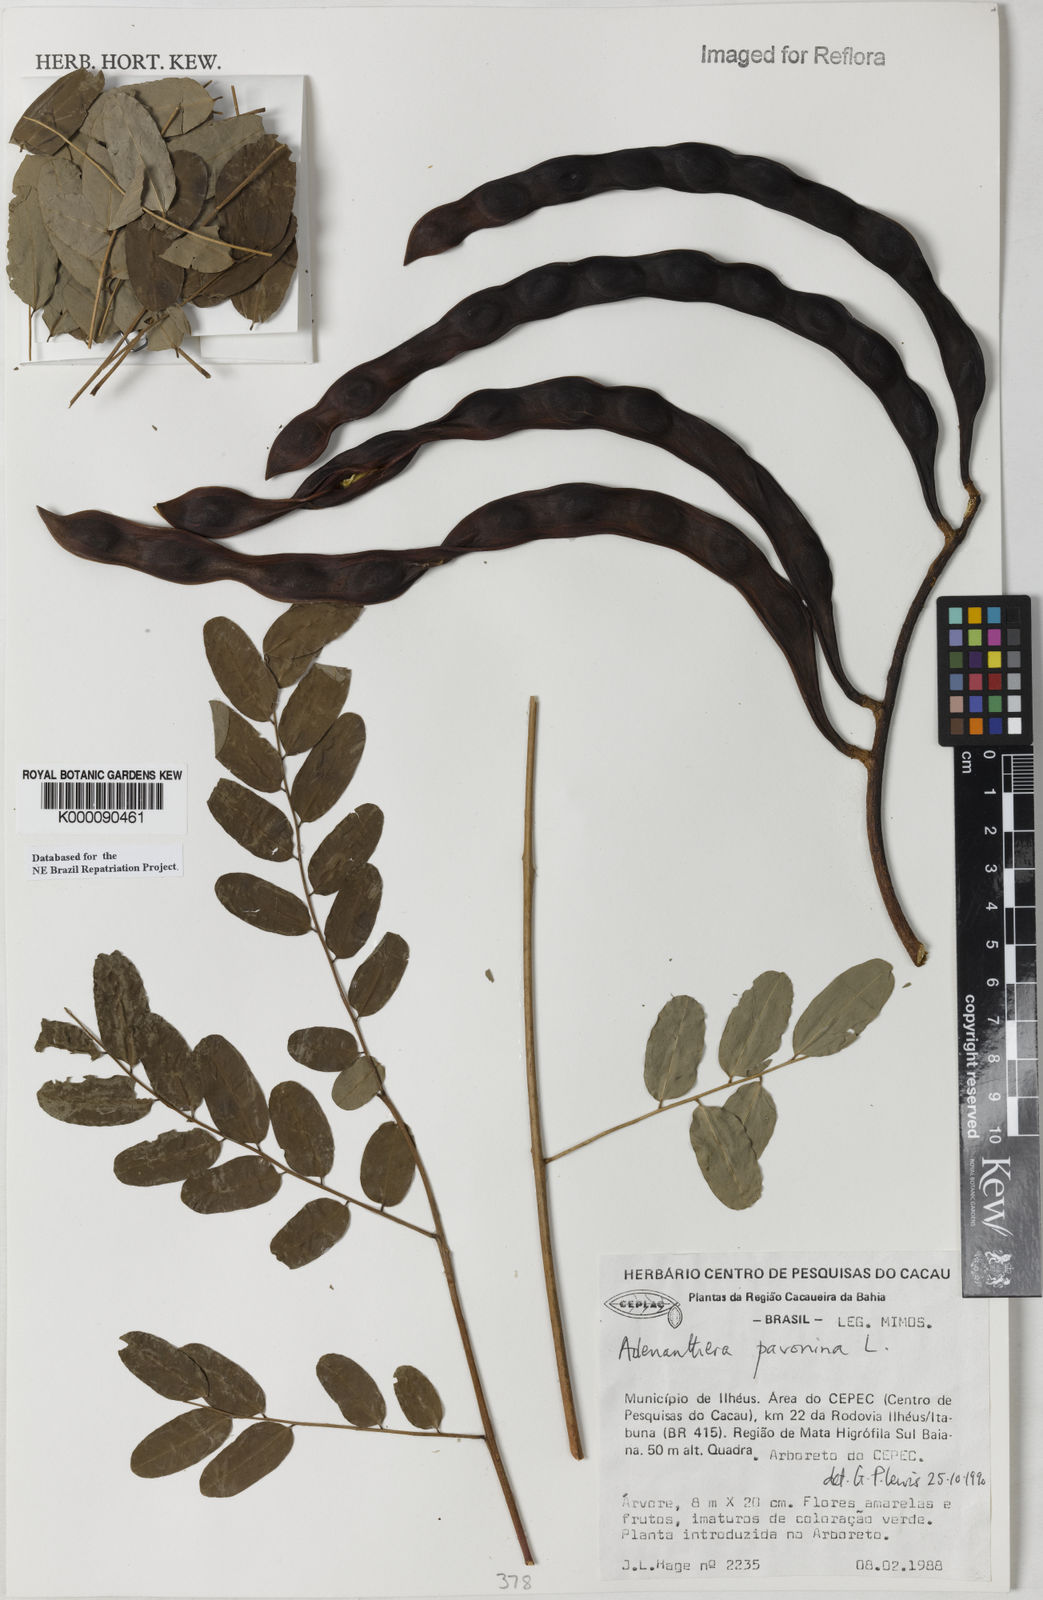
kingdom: Plantae
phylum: Tracheophyta
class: Magnoliopsida
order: Fabales
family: Fabaceae
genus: Adenanthera
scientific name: Adenanthera pavonina
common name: Red beadtree
